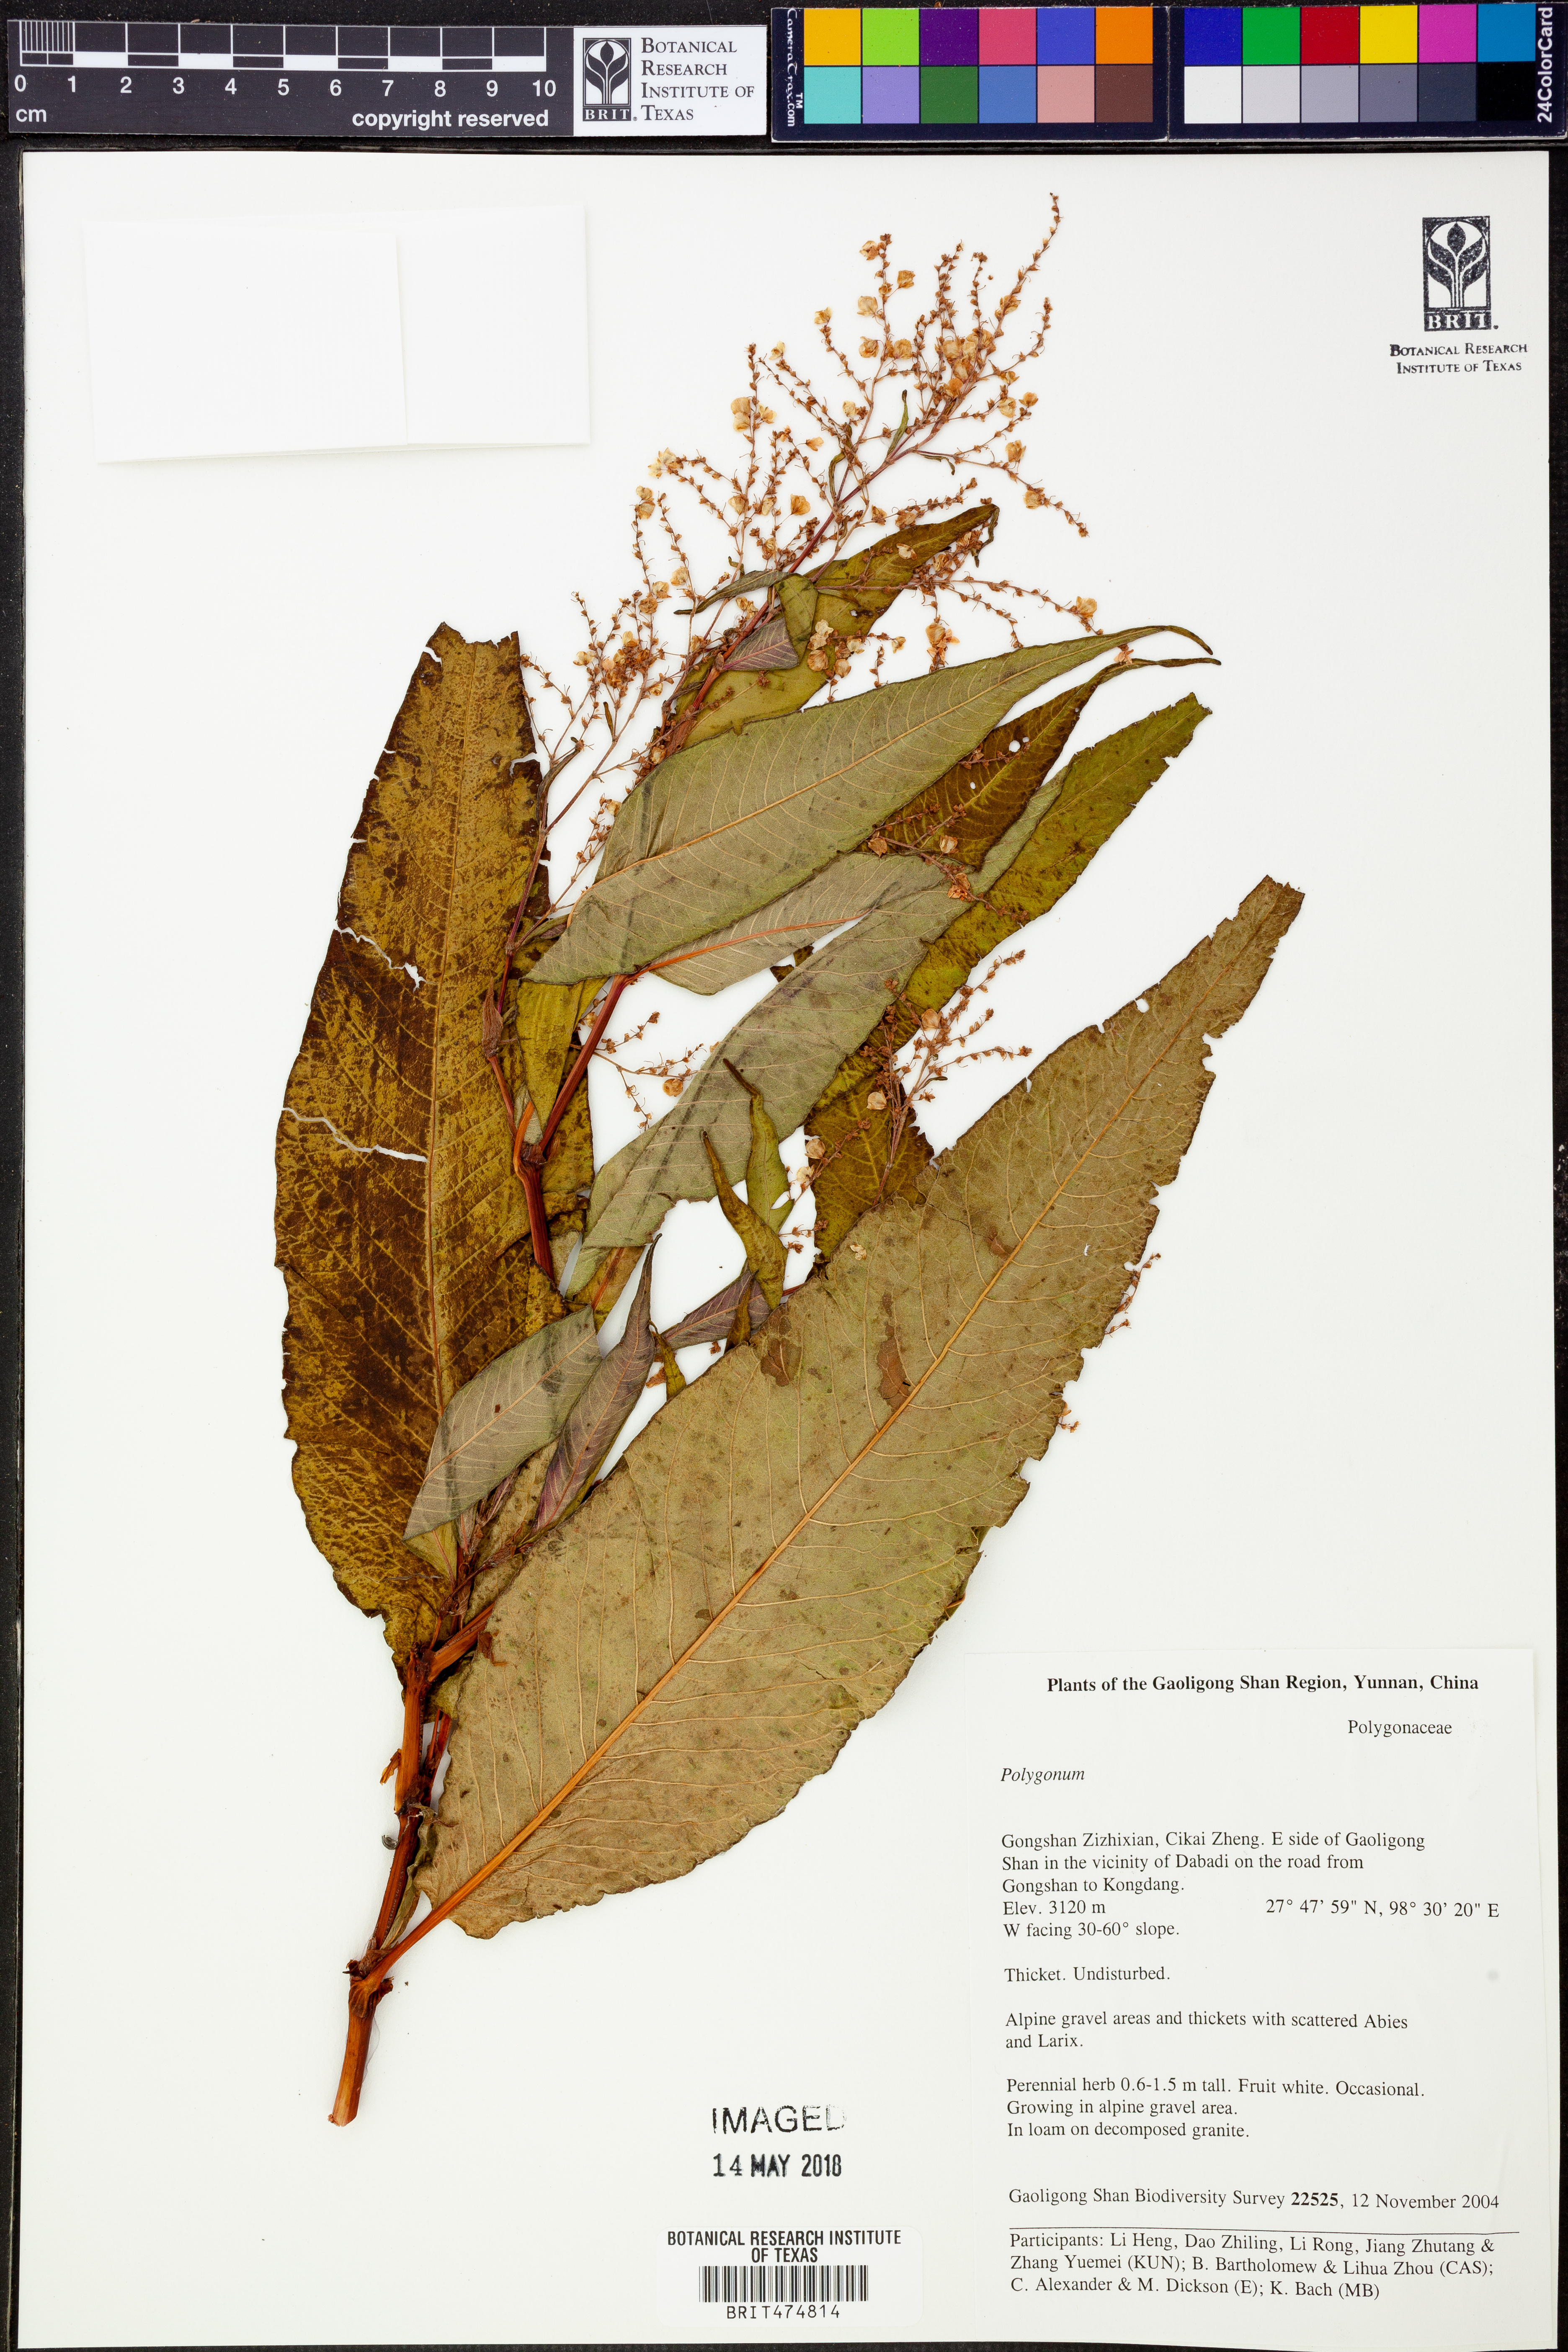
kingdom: Plantae
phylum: Tracheophyta
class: Magnoliopsida
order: Caryophyllales
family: Polygonaceae
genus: Polygonum
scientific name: Polygonum
